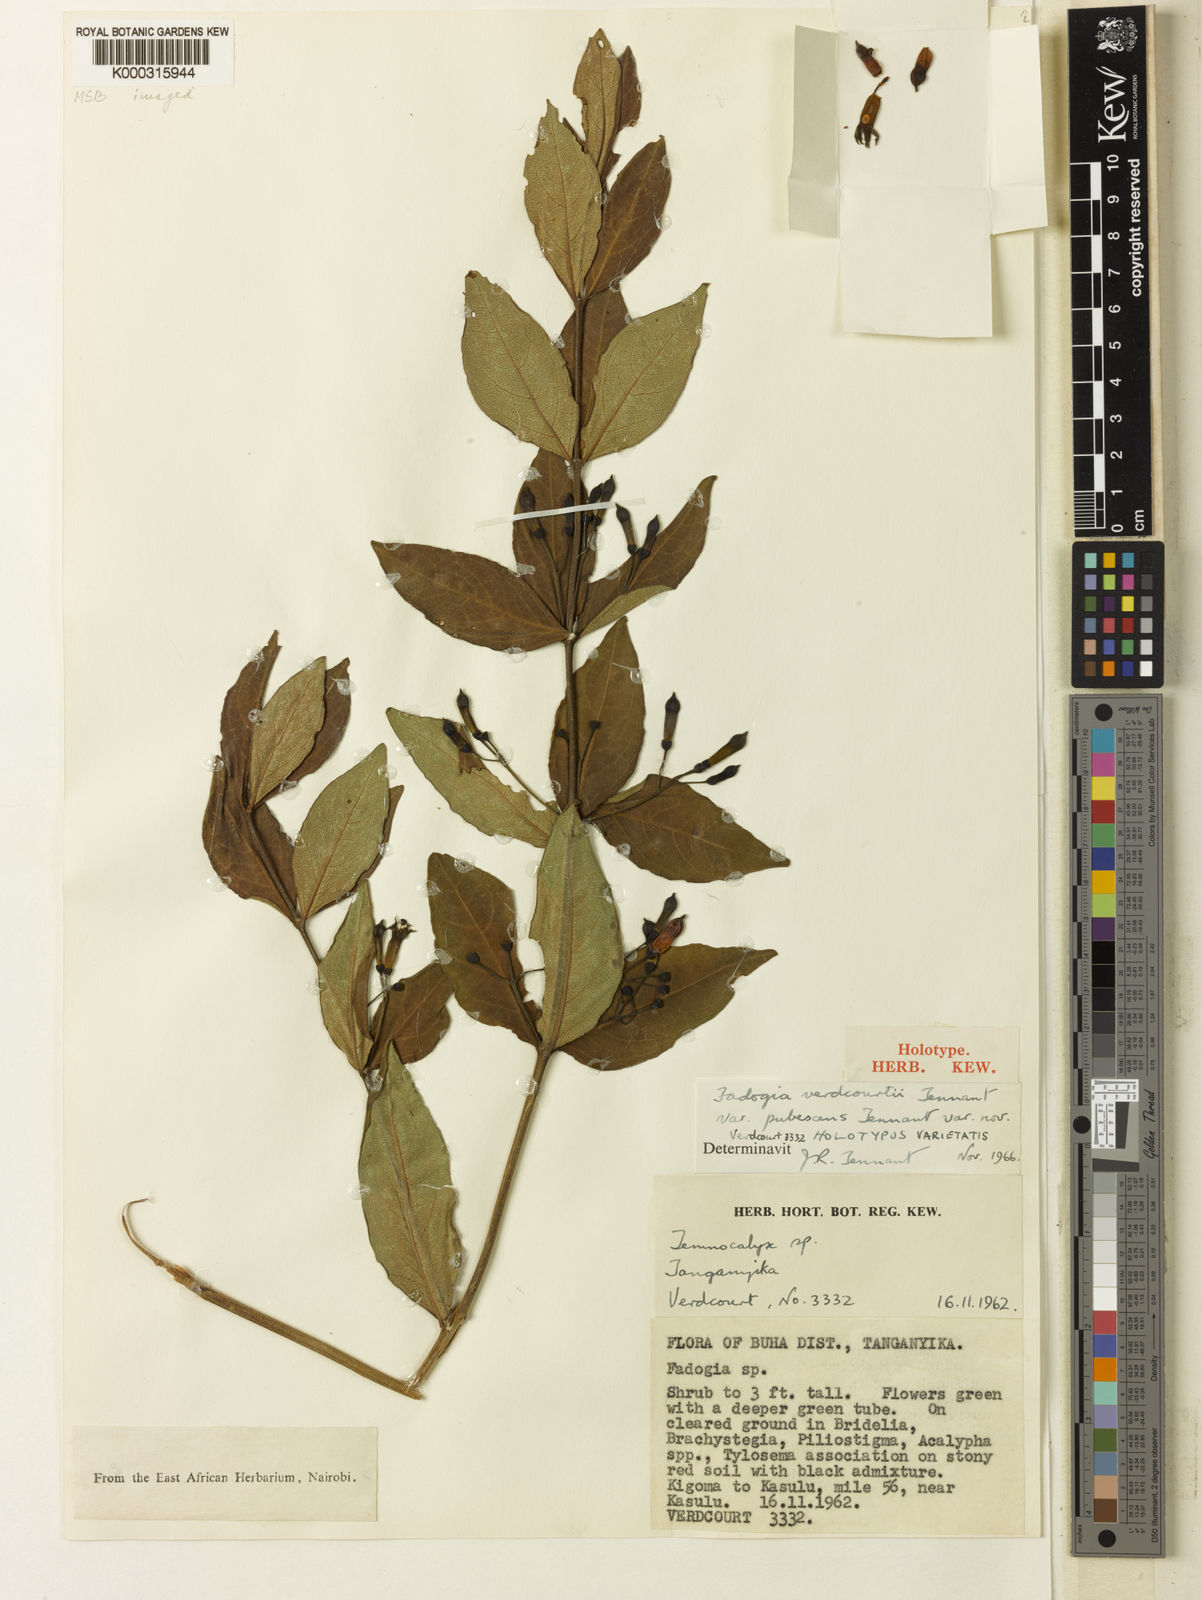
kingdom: Plantae
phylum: Tracheophyta
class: Magnoliopsida
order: Gentianales
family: Rubiaceae
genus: Fadogia
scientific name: Fadogia verdcourtii
